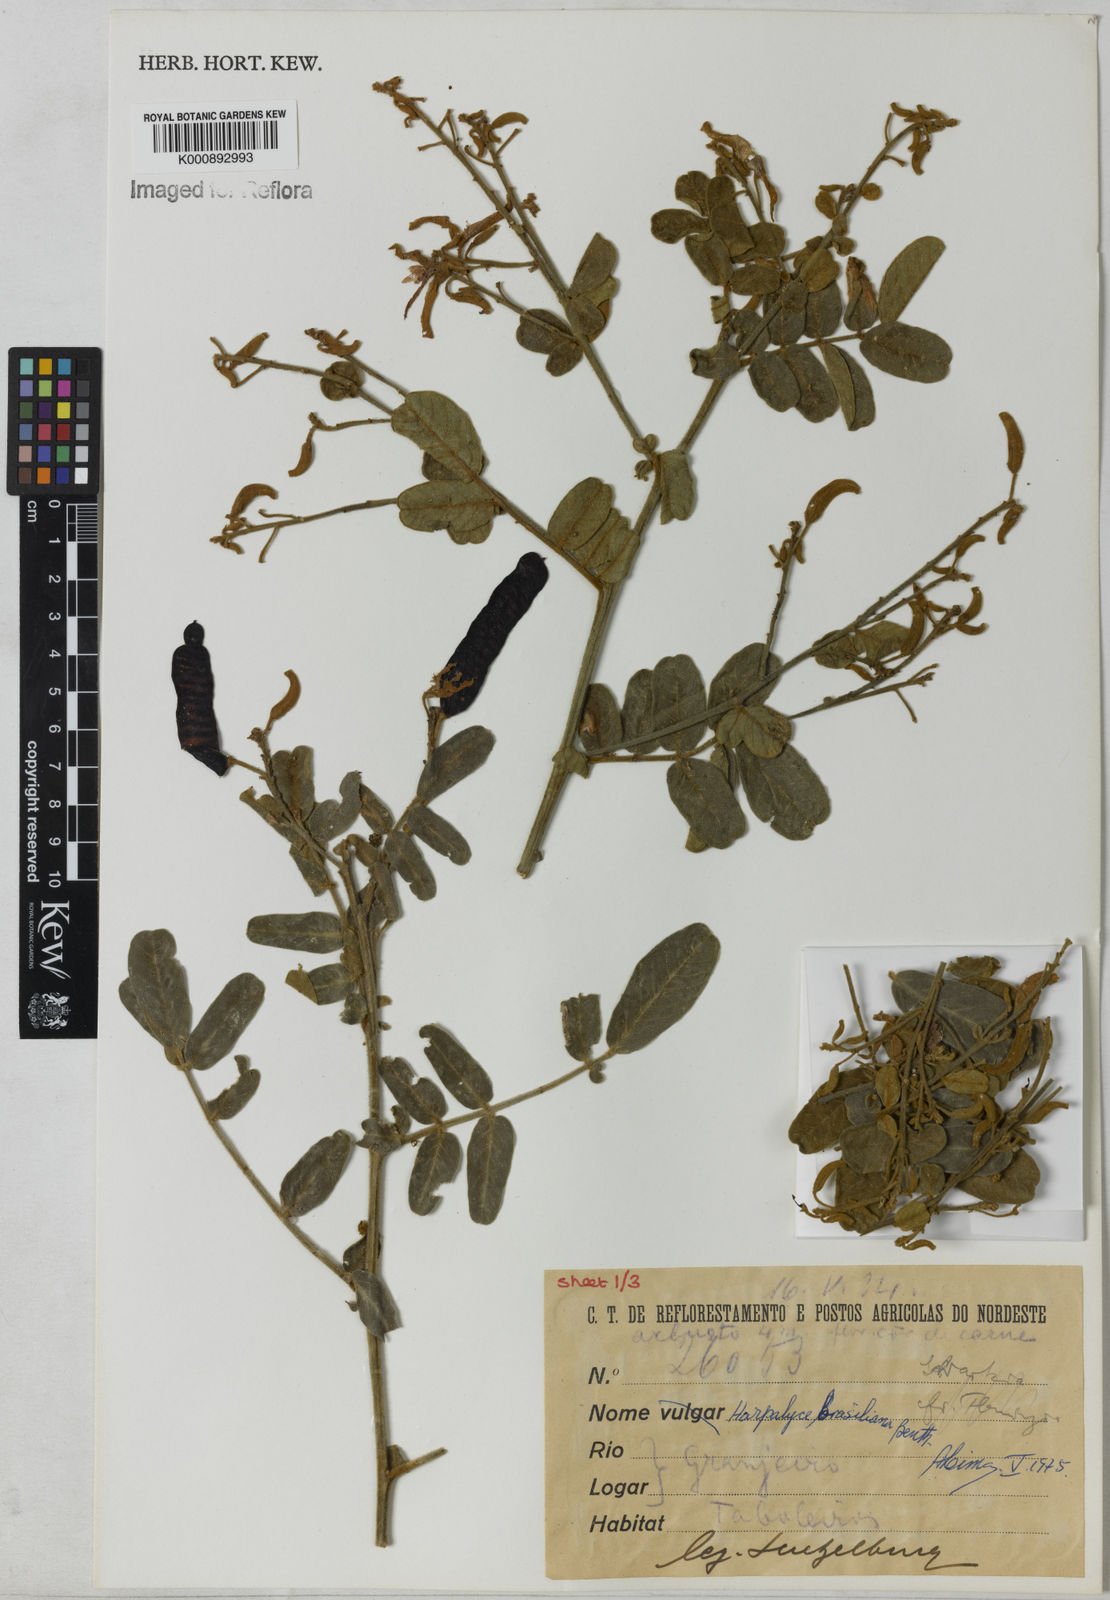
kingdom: Plantae
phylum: Tracheophyta
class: Magnoliopsida
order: Fabales
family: Fabaceae
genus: Harpalyce
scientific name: Harpalyce brasiliana
